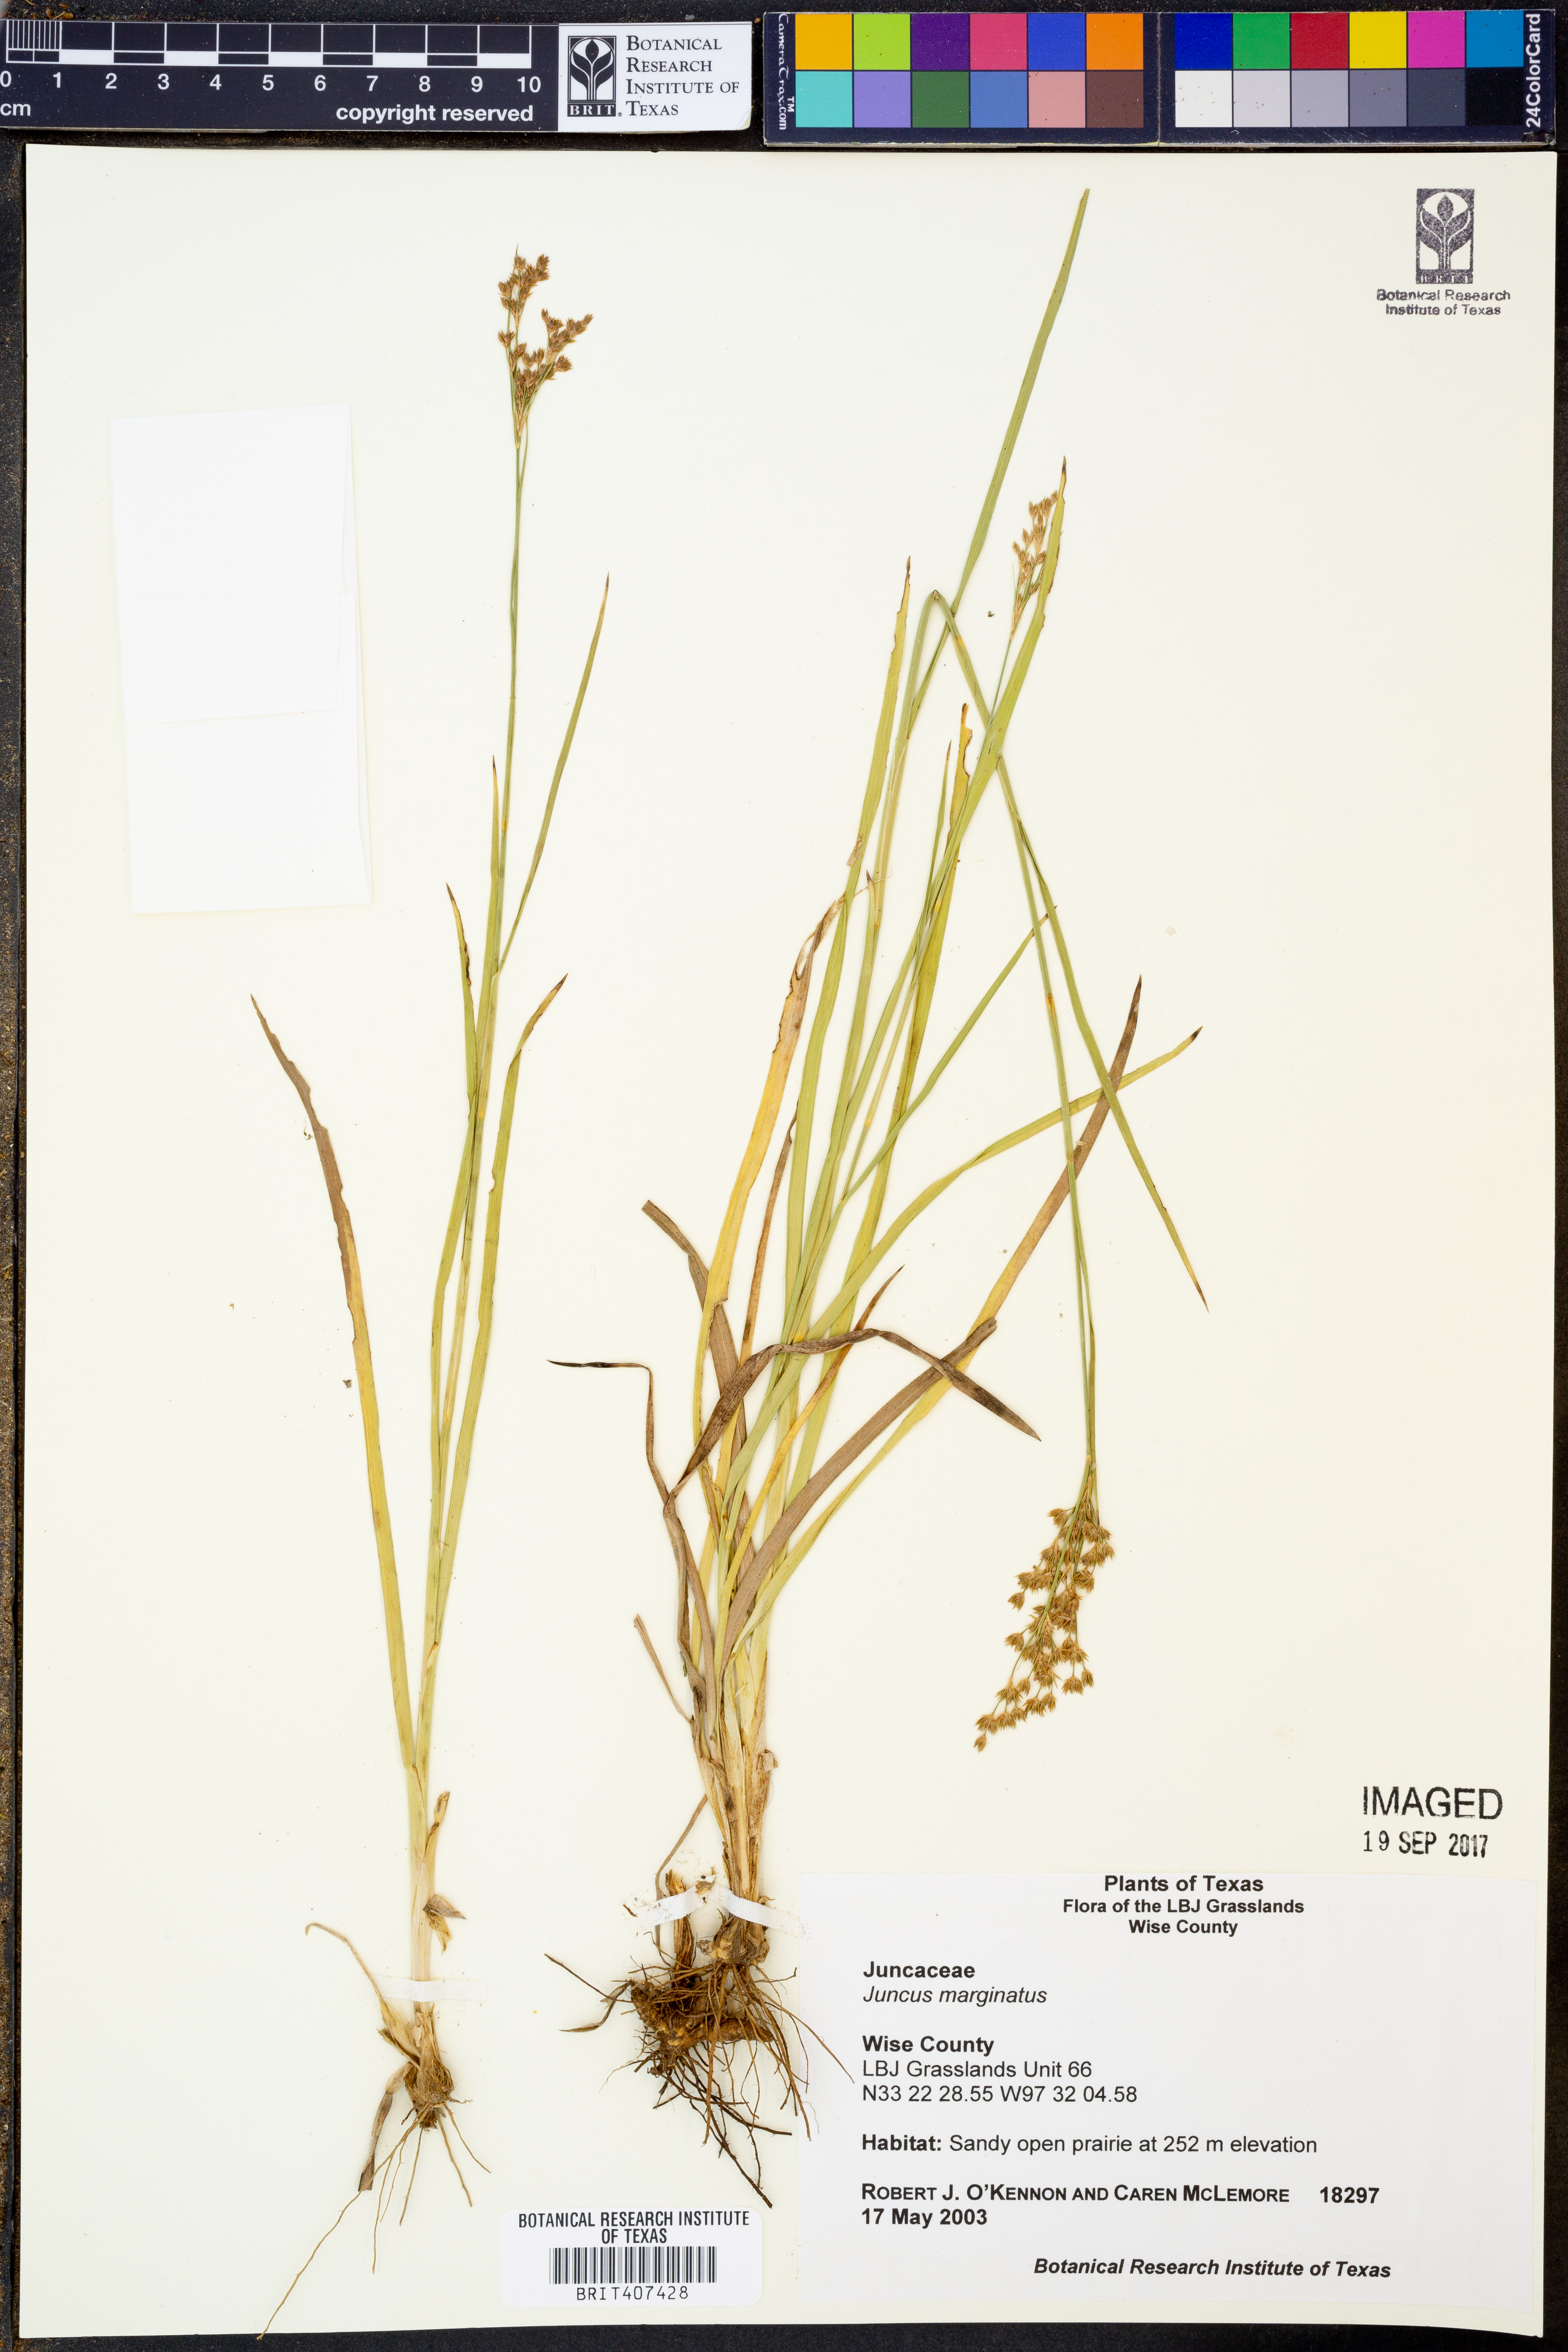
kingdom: Plantae
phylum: Tracheophyta
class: Liliopsida
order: Poales
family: Juncaceae
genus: Juncus
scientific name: Juncus marginatus
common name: Grass-leaf rush
